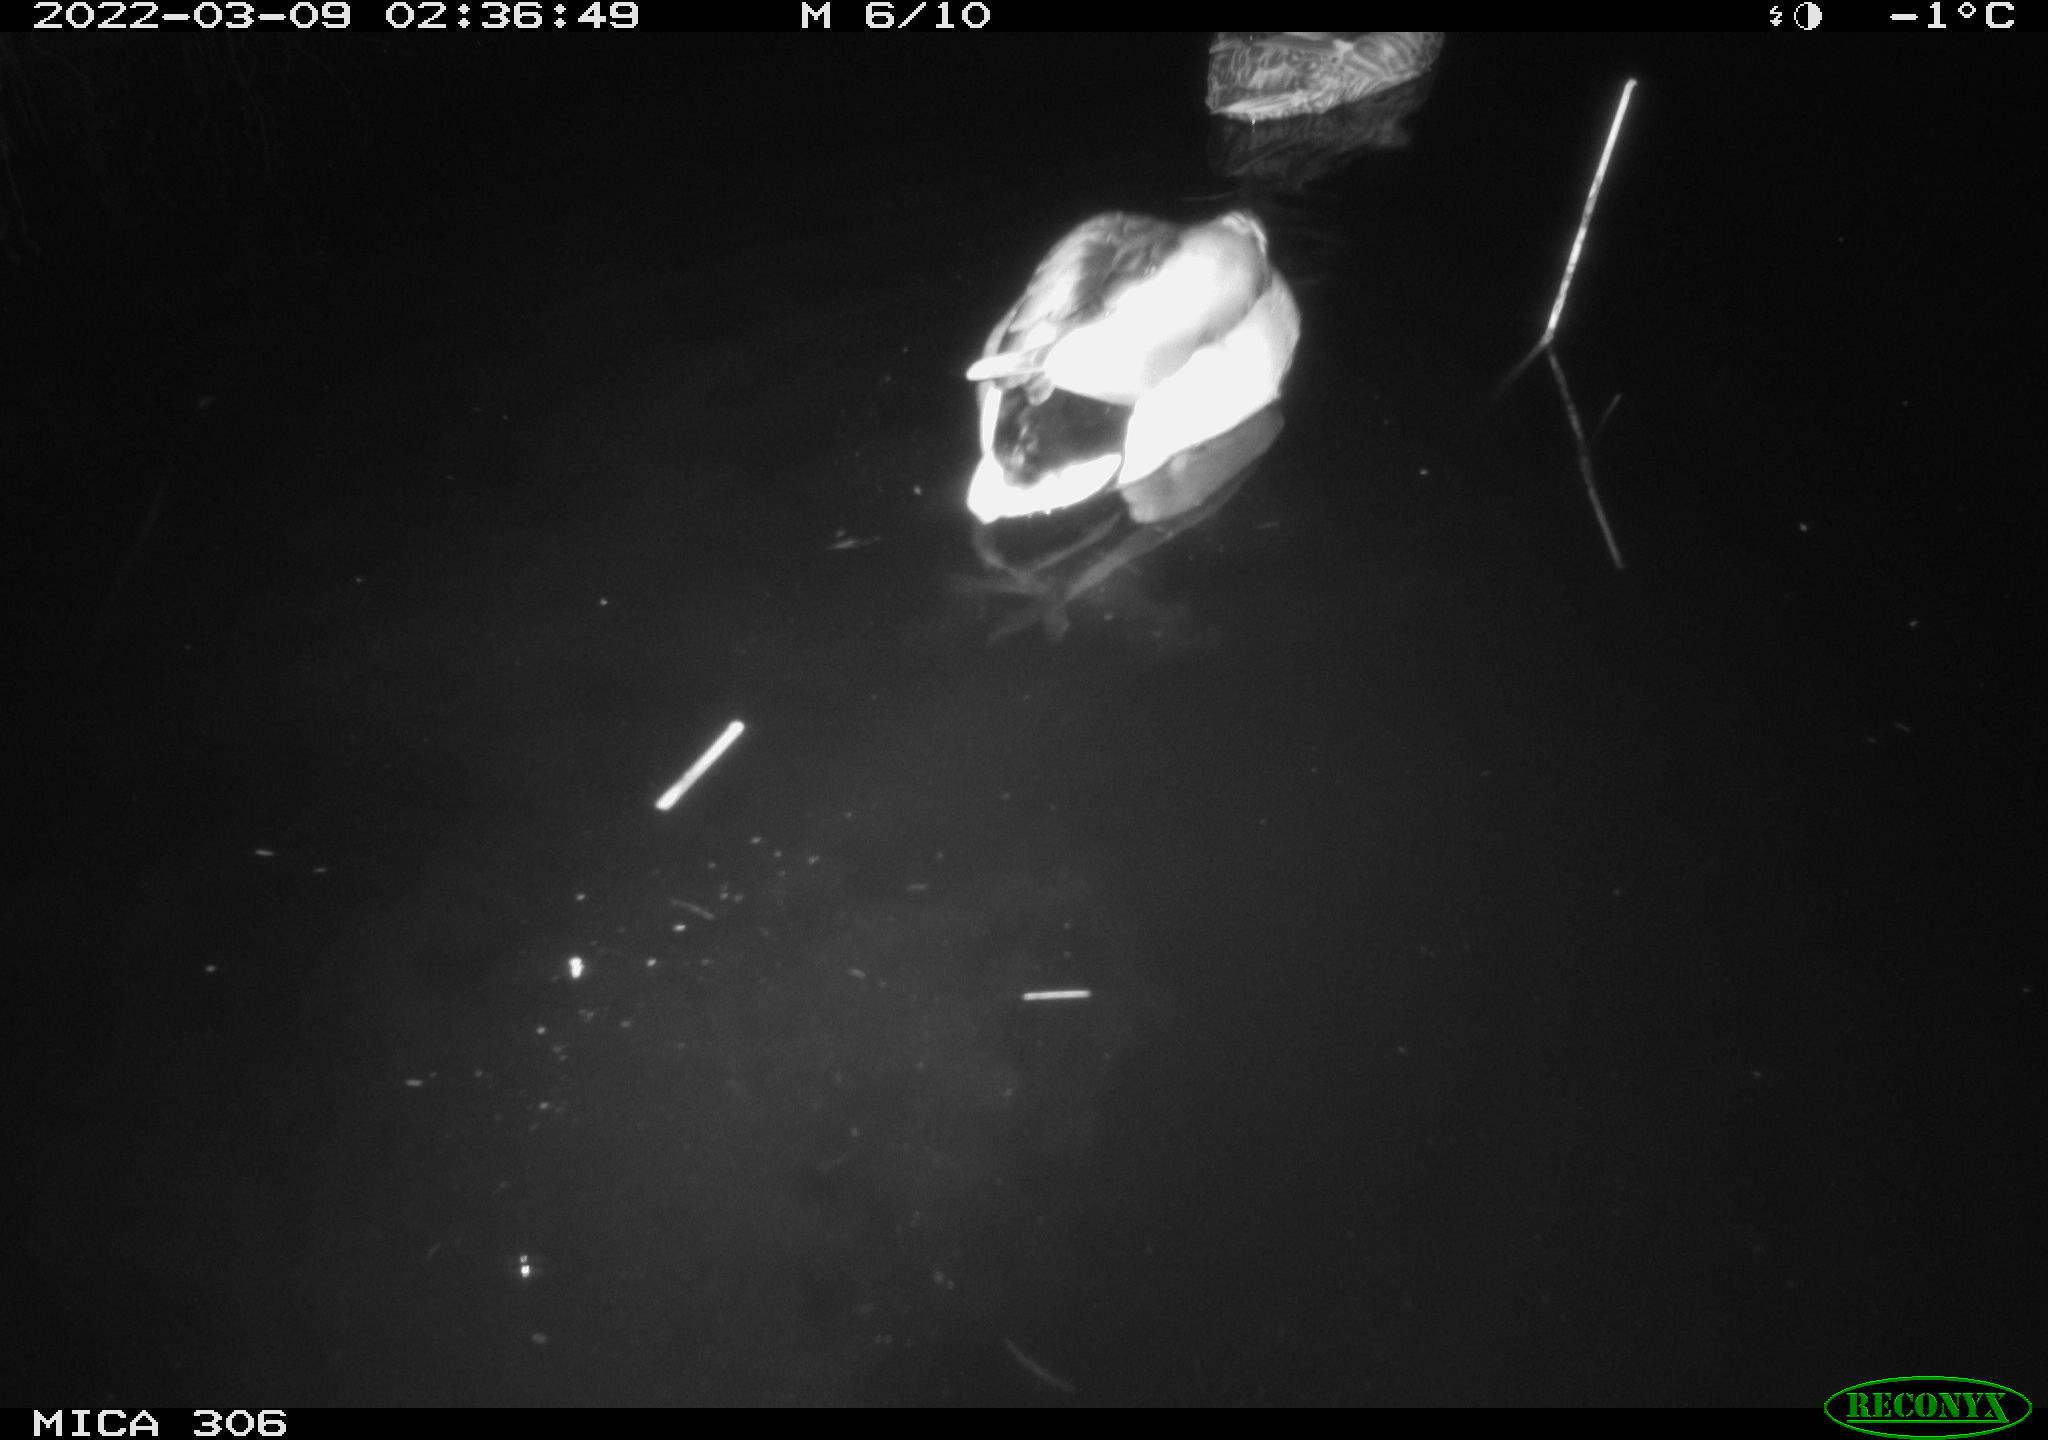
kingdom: Animalia
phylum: Chordata
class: Aves
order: Anseriformes
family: Anatidae
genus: Anas
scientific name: Anas
